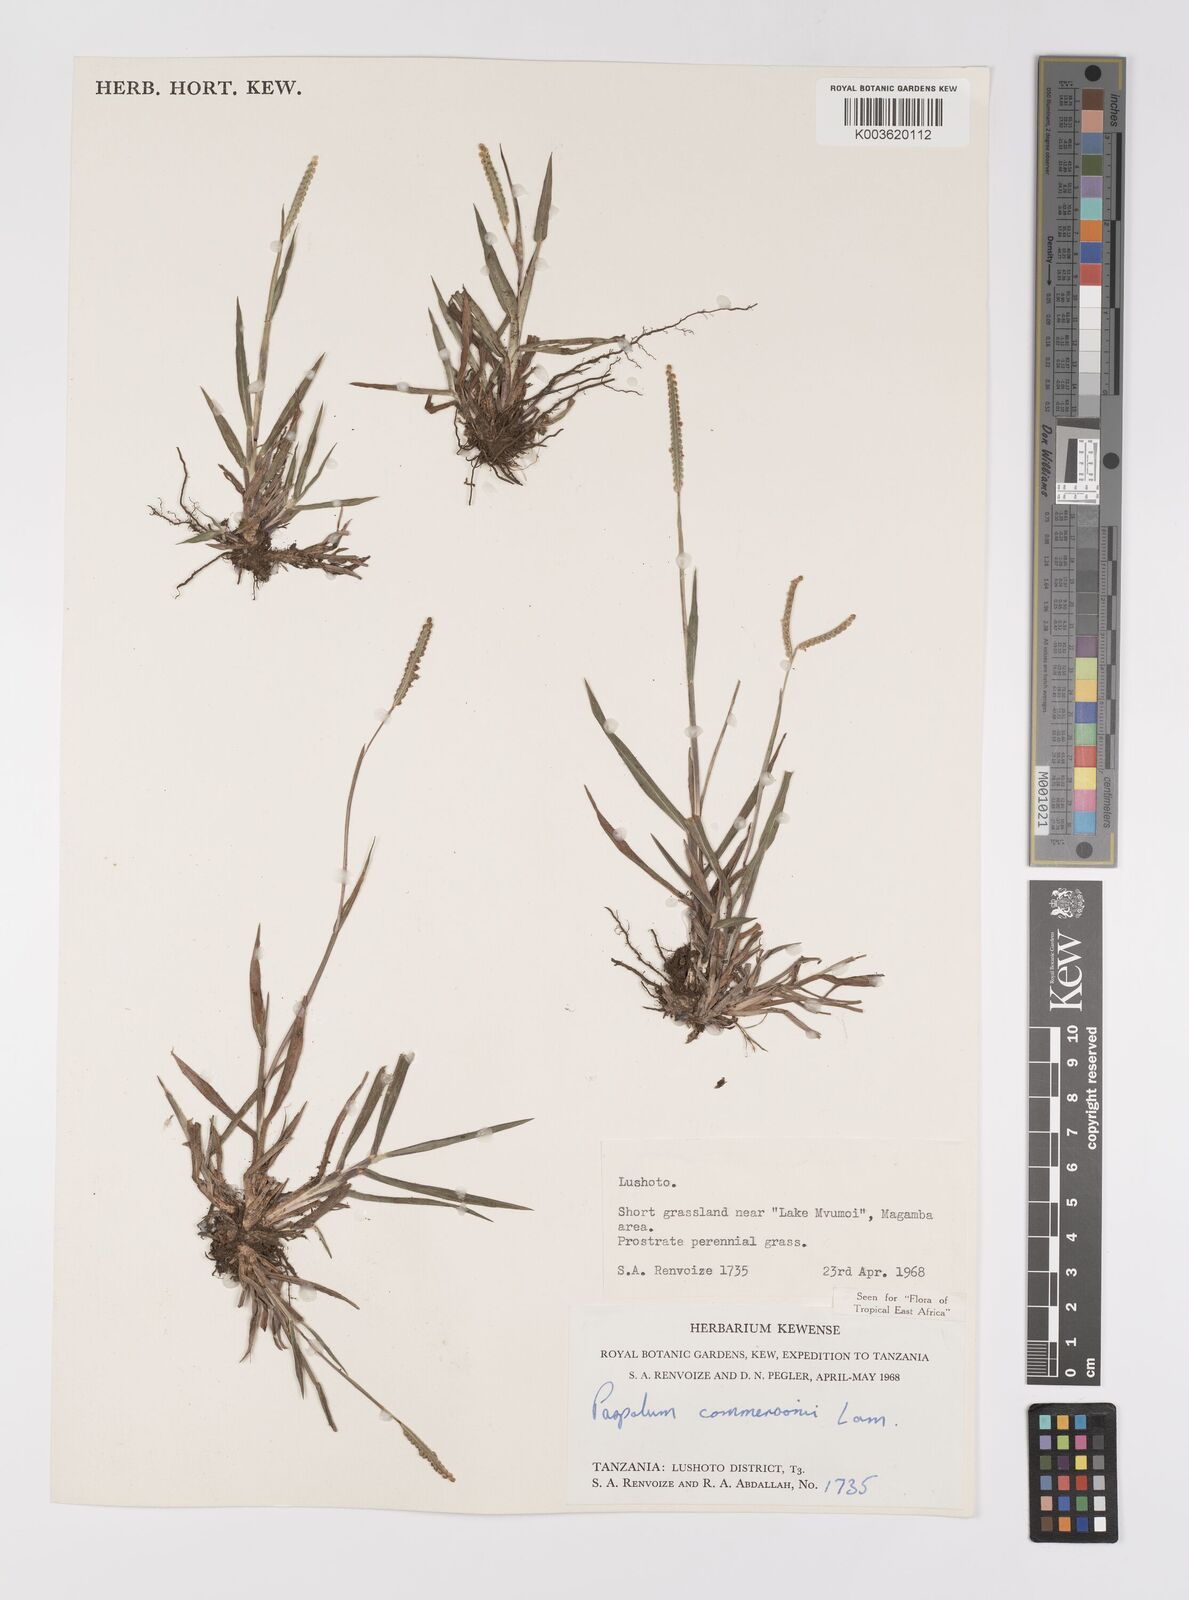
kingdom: Plantae
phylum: Tracheophyta
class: Liliopsida
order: Poales
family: Poaceae
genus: Paspalum
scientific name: Paspalum scrobiculatum
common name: Kodo millet
